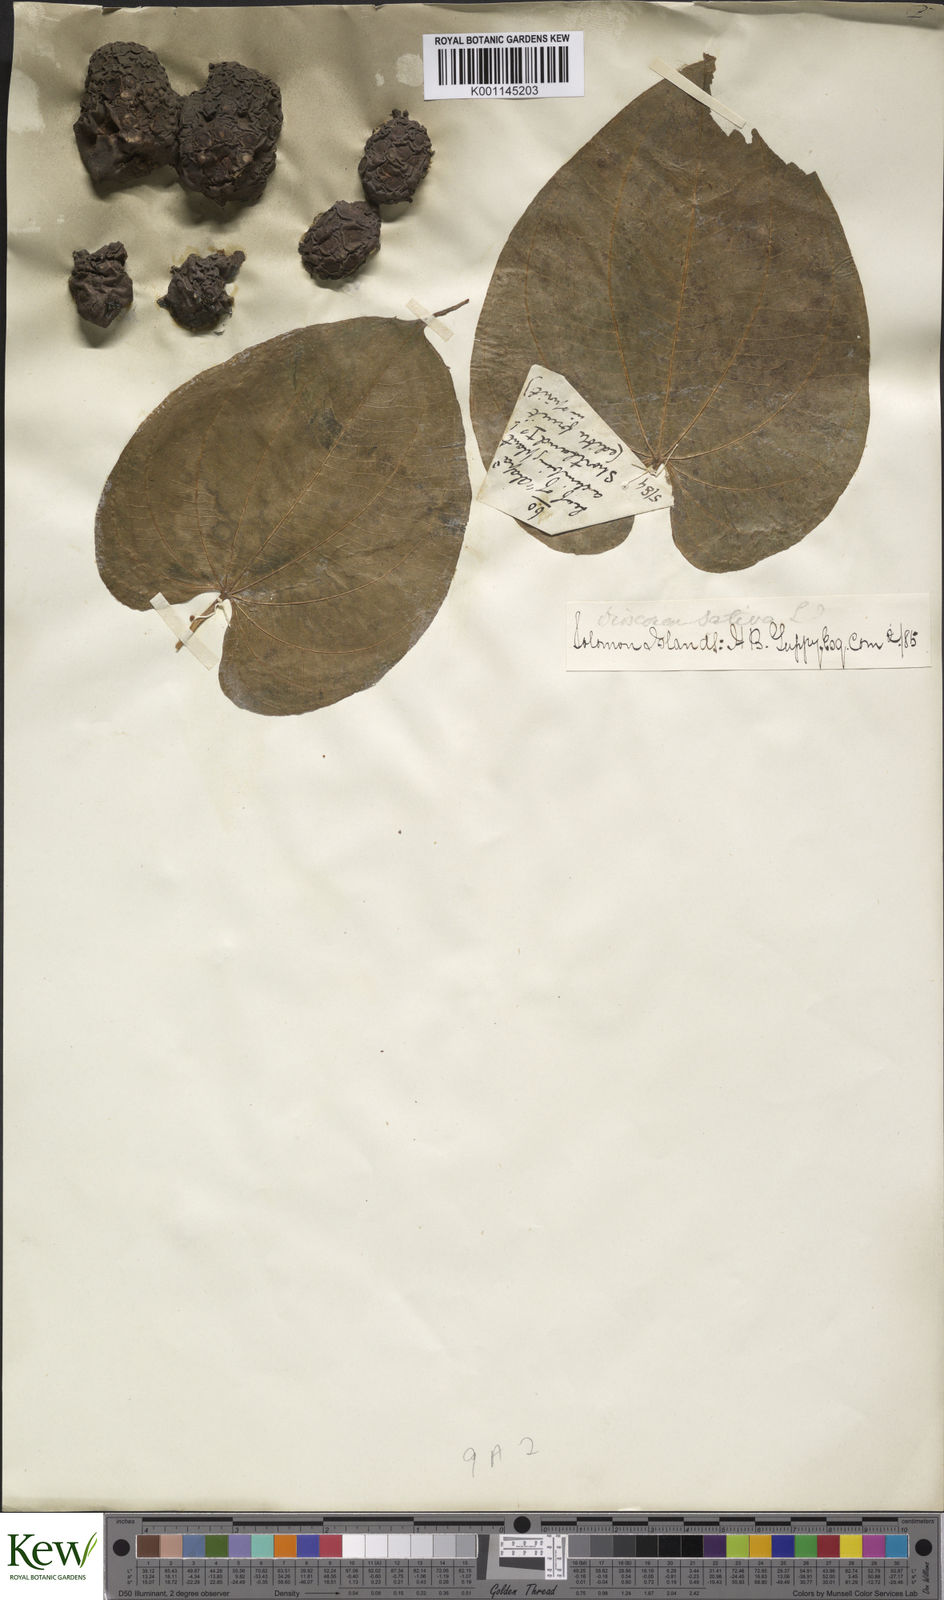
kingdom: Plantae
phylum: Tracheophyta
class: Liliopsida
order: Dioscoreales
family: Dioscoreaceae
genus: Dioscorea
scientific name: Dioscorea bulbifera
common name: Air yam
